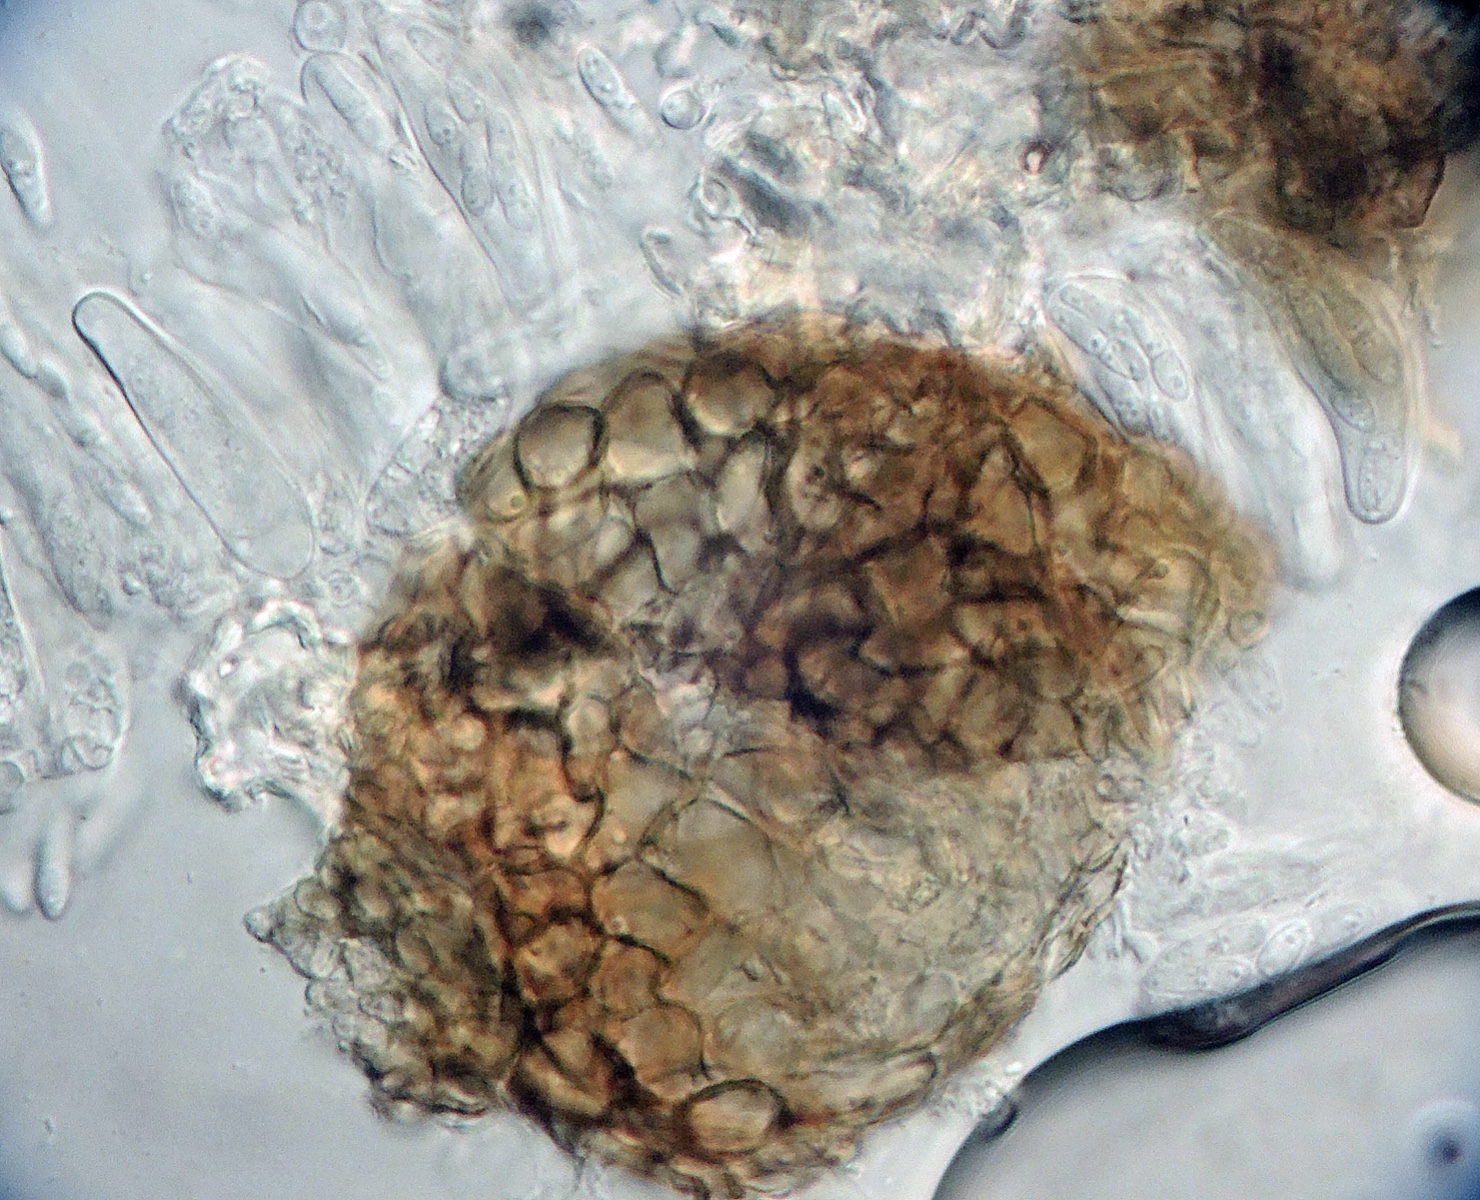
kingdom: Fungi
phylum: Ascomycota
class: Dothideomycetes
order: Capnodiales
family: Mycosphaerellaceae
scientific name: Mycosphaerellaceae
